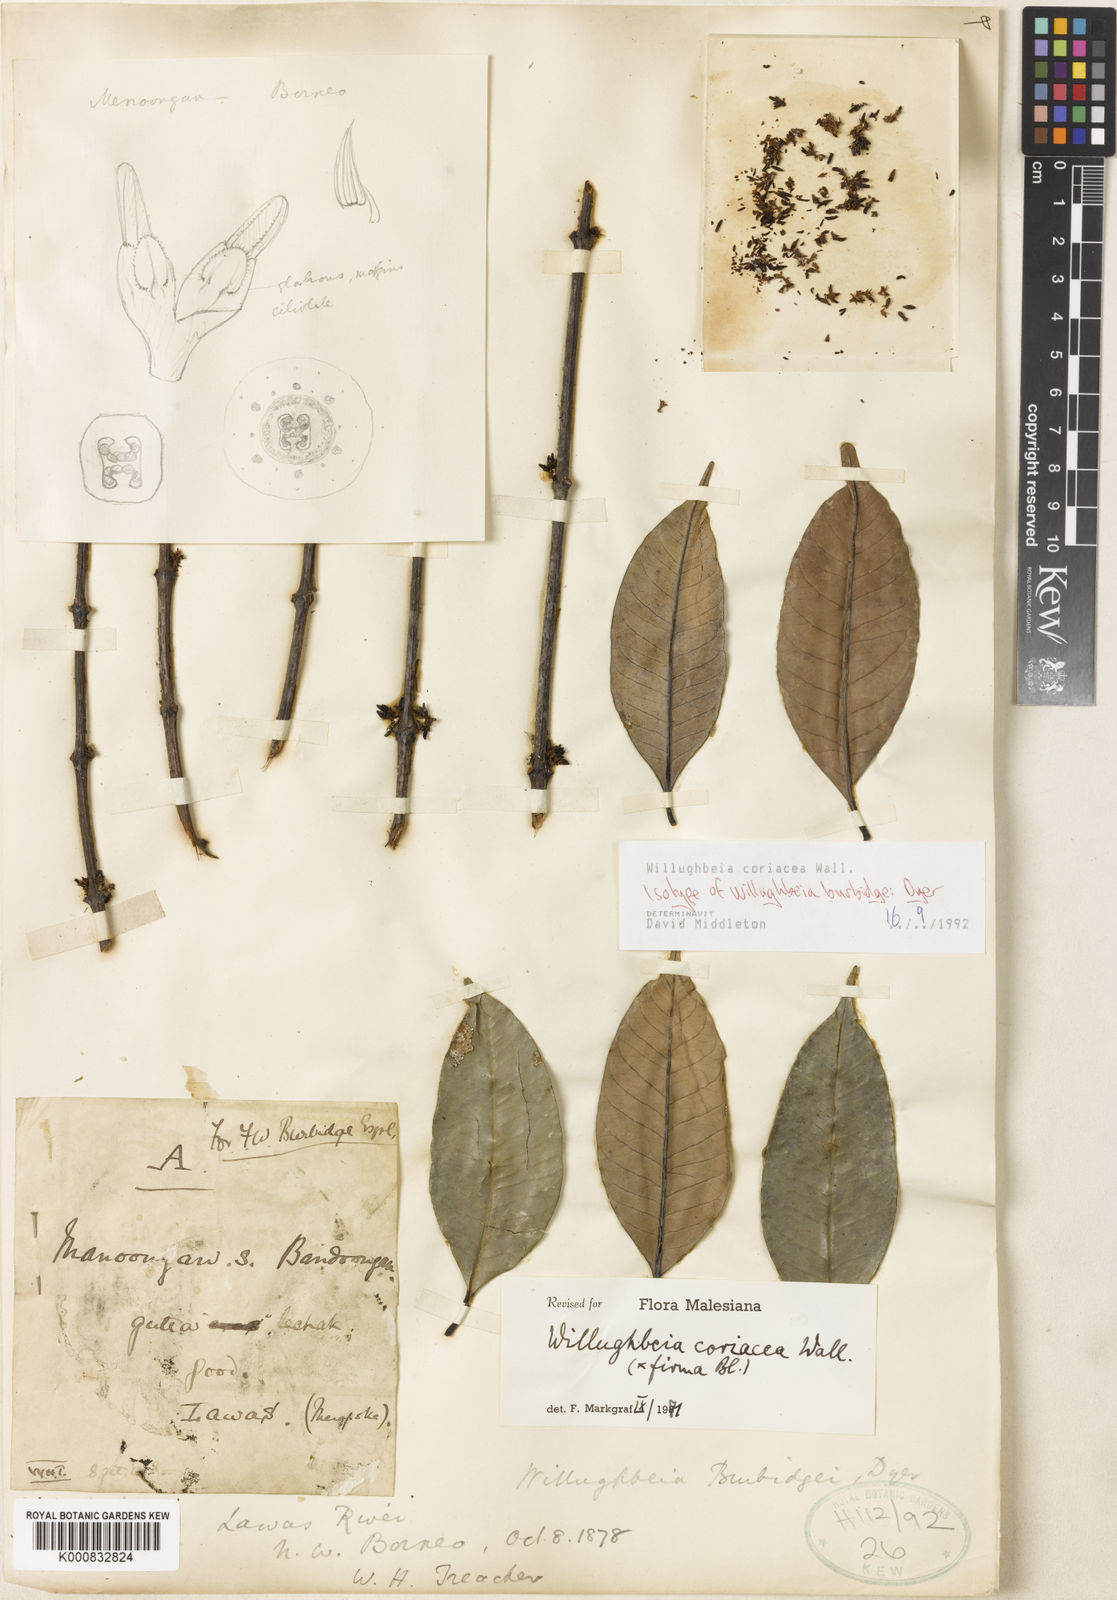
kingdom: Plantae
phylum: Tracheophyta
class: Magnoliopsida
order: Gentianales
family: Apocynaceae
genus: Willughbeia
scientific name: Willughbeia coriacea
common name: Borneo-rubber
